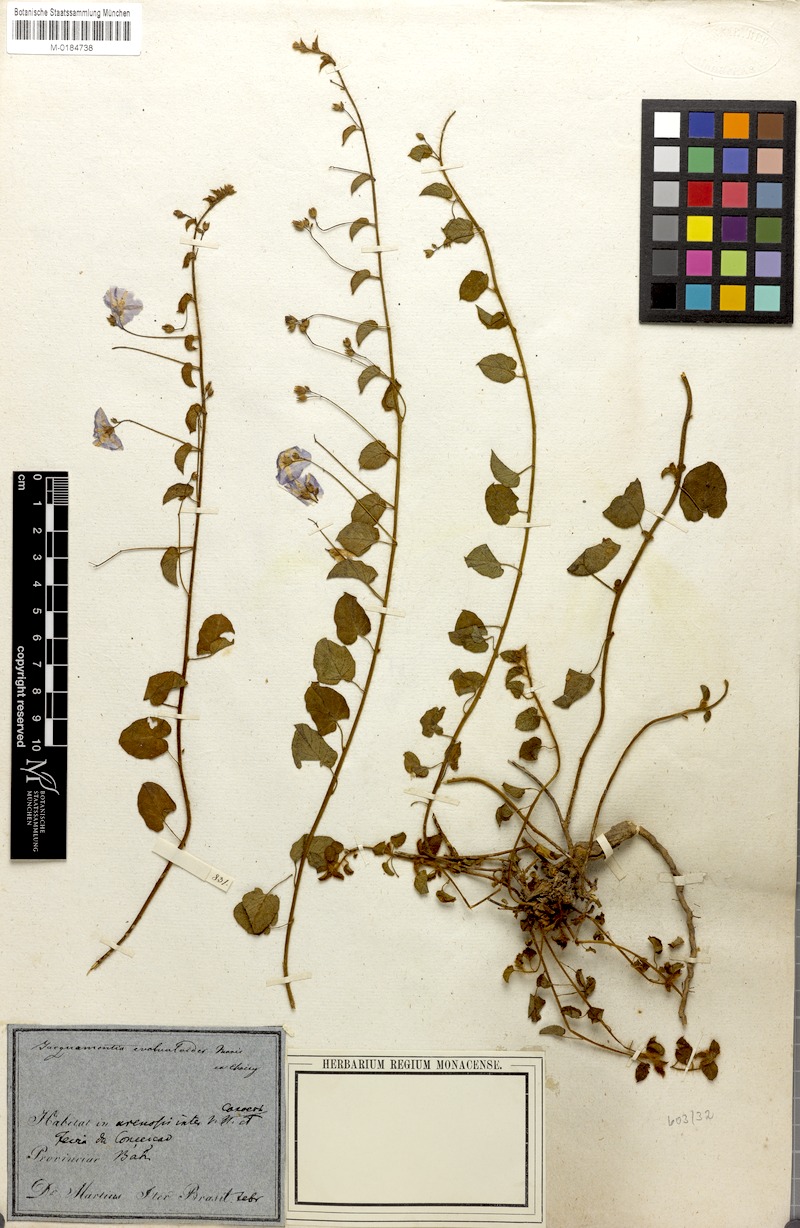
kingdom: Plantae
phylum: Tracheophyta
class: Magnoliopsida
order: Solanales
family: Convolvulaceae
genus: Jacquemontia
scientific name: Jacquemontia evolvuloides
